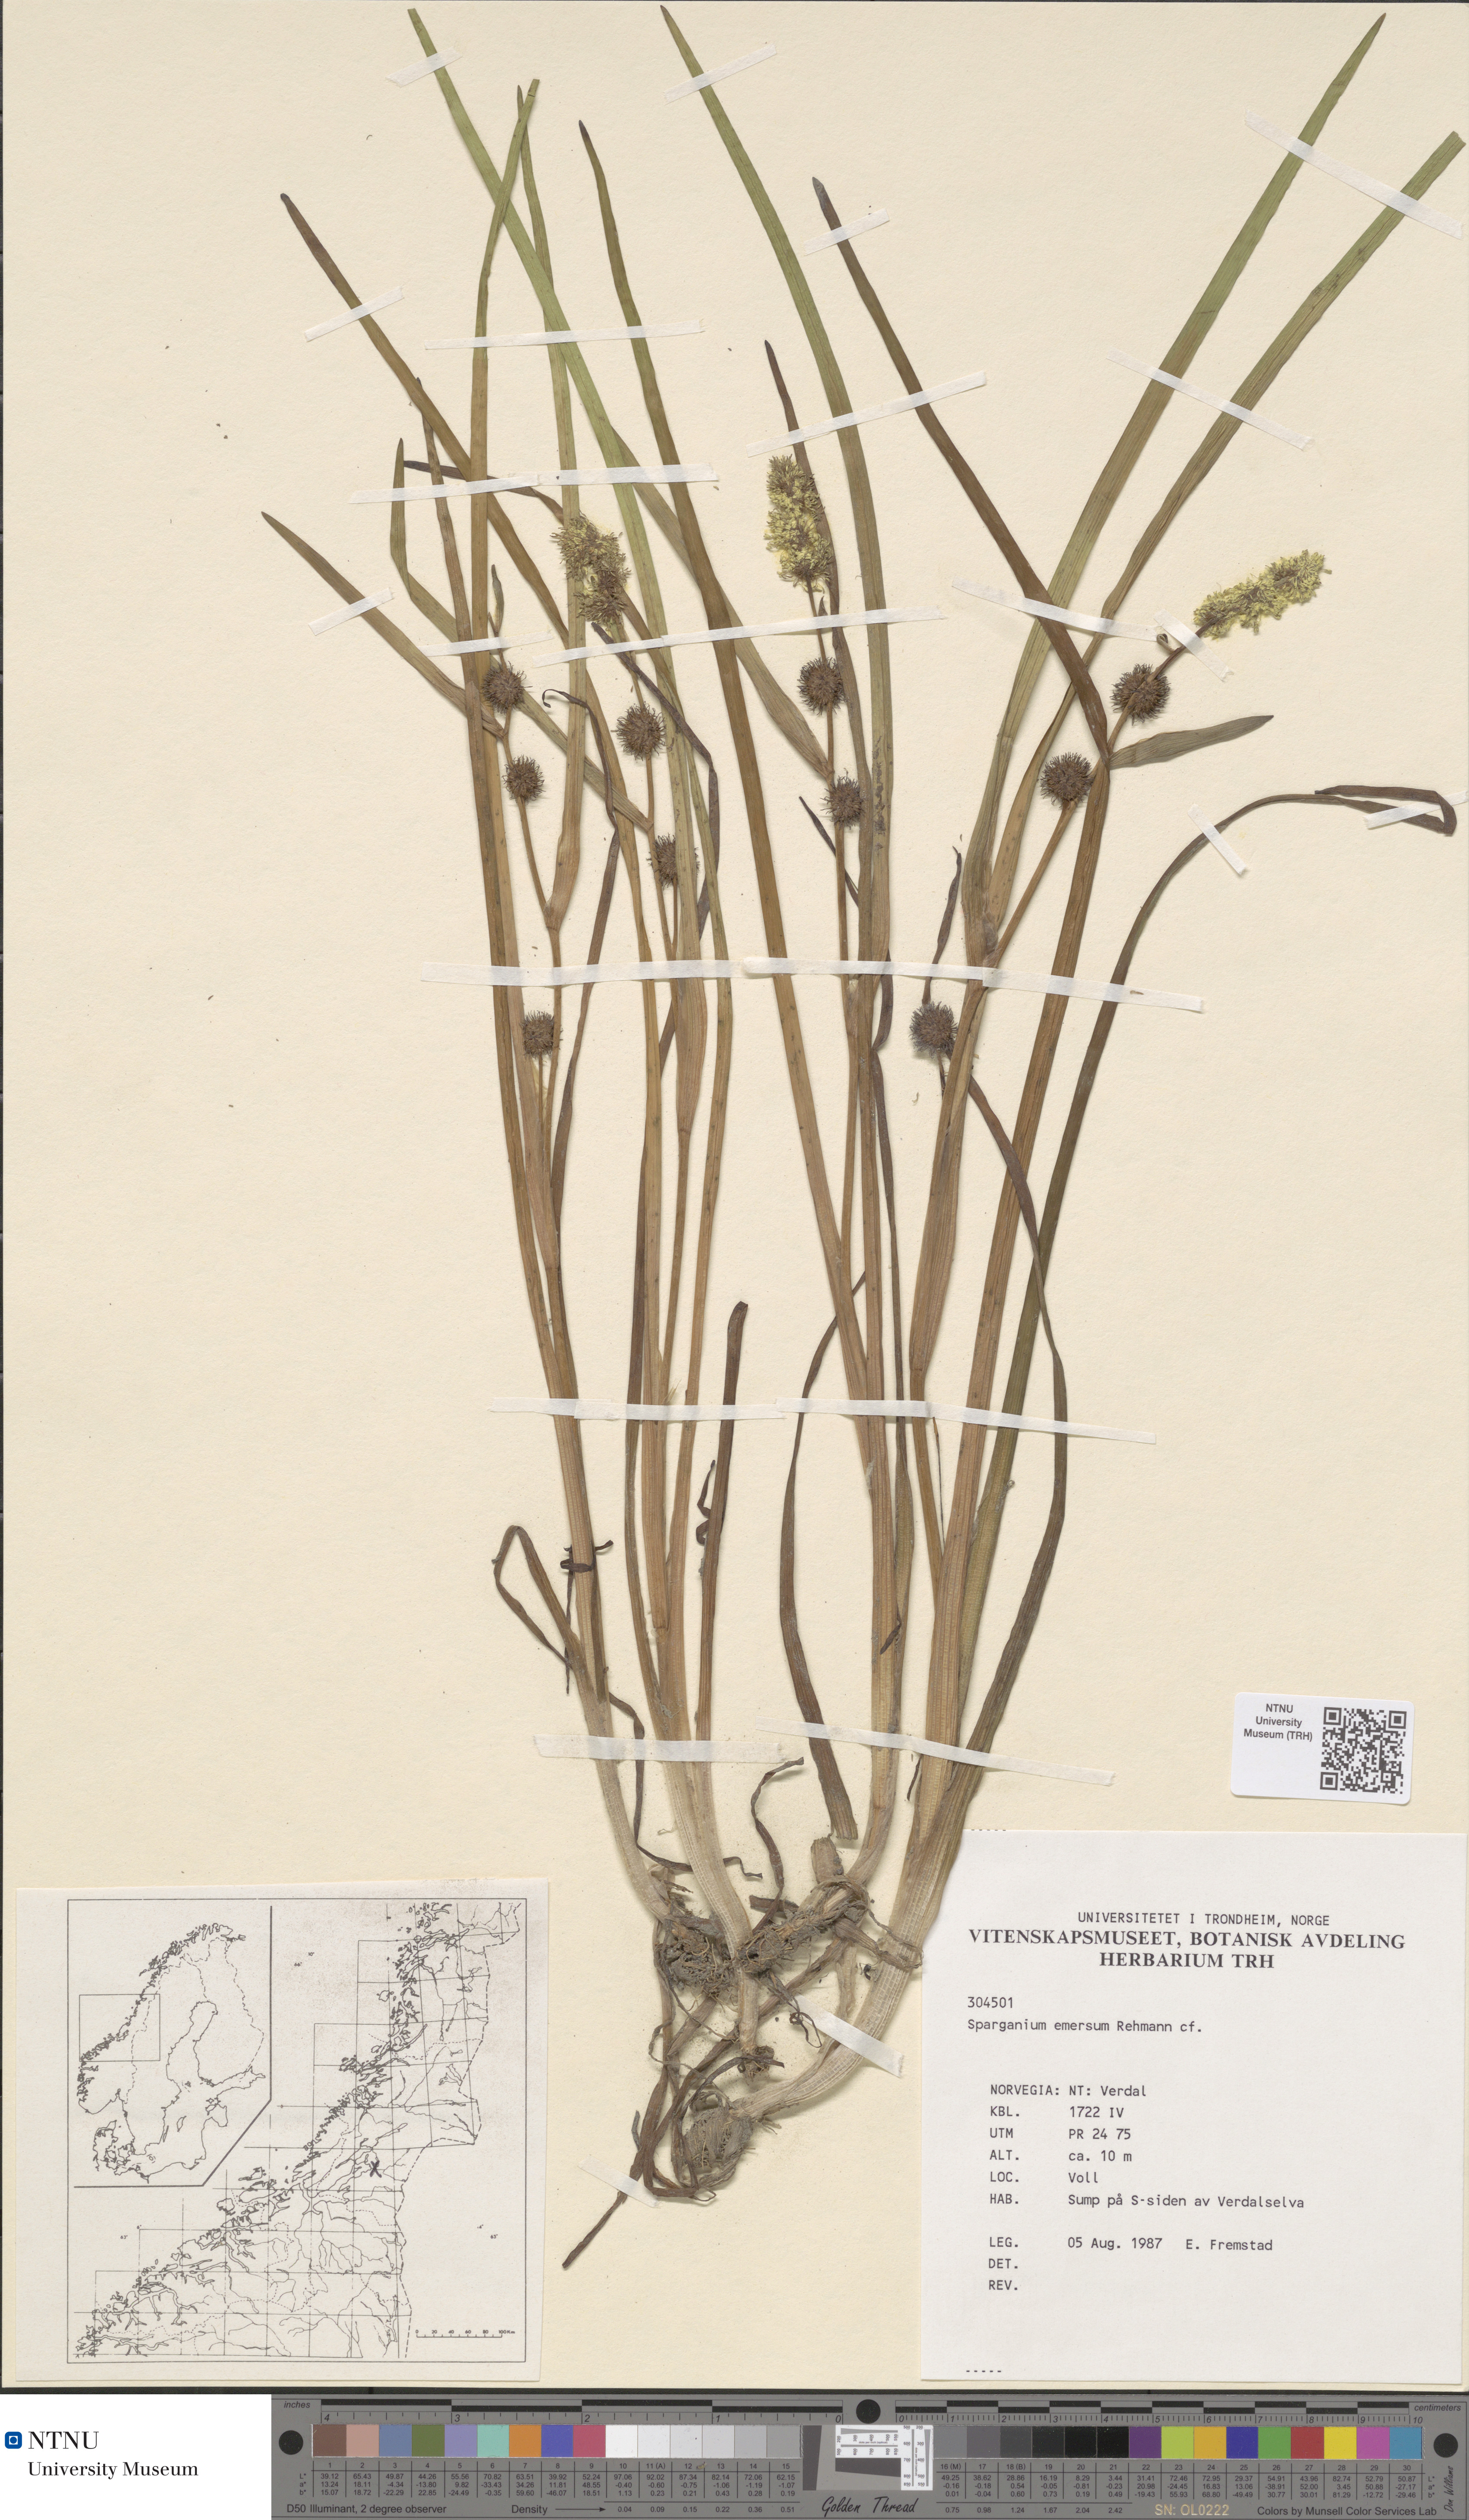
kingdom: Plantae
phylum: Tracheophyta
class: Liliopsida
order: Poales
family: Typhaceae
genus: Sparganium
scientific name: Sparganium emersum
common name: Unbranched bur-reed
